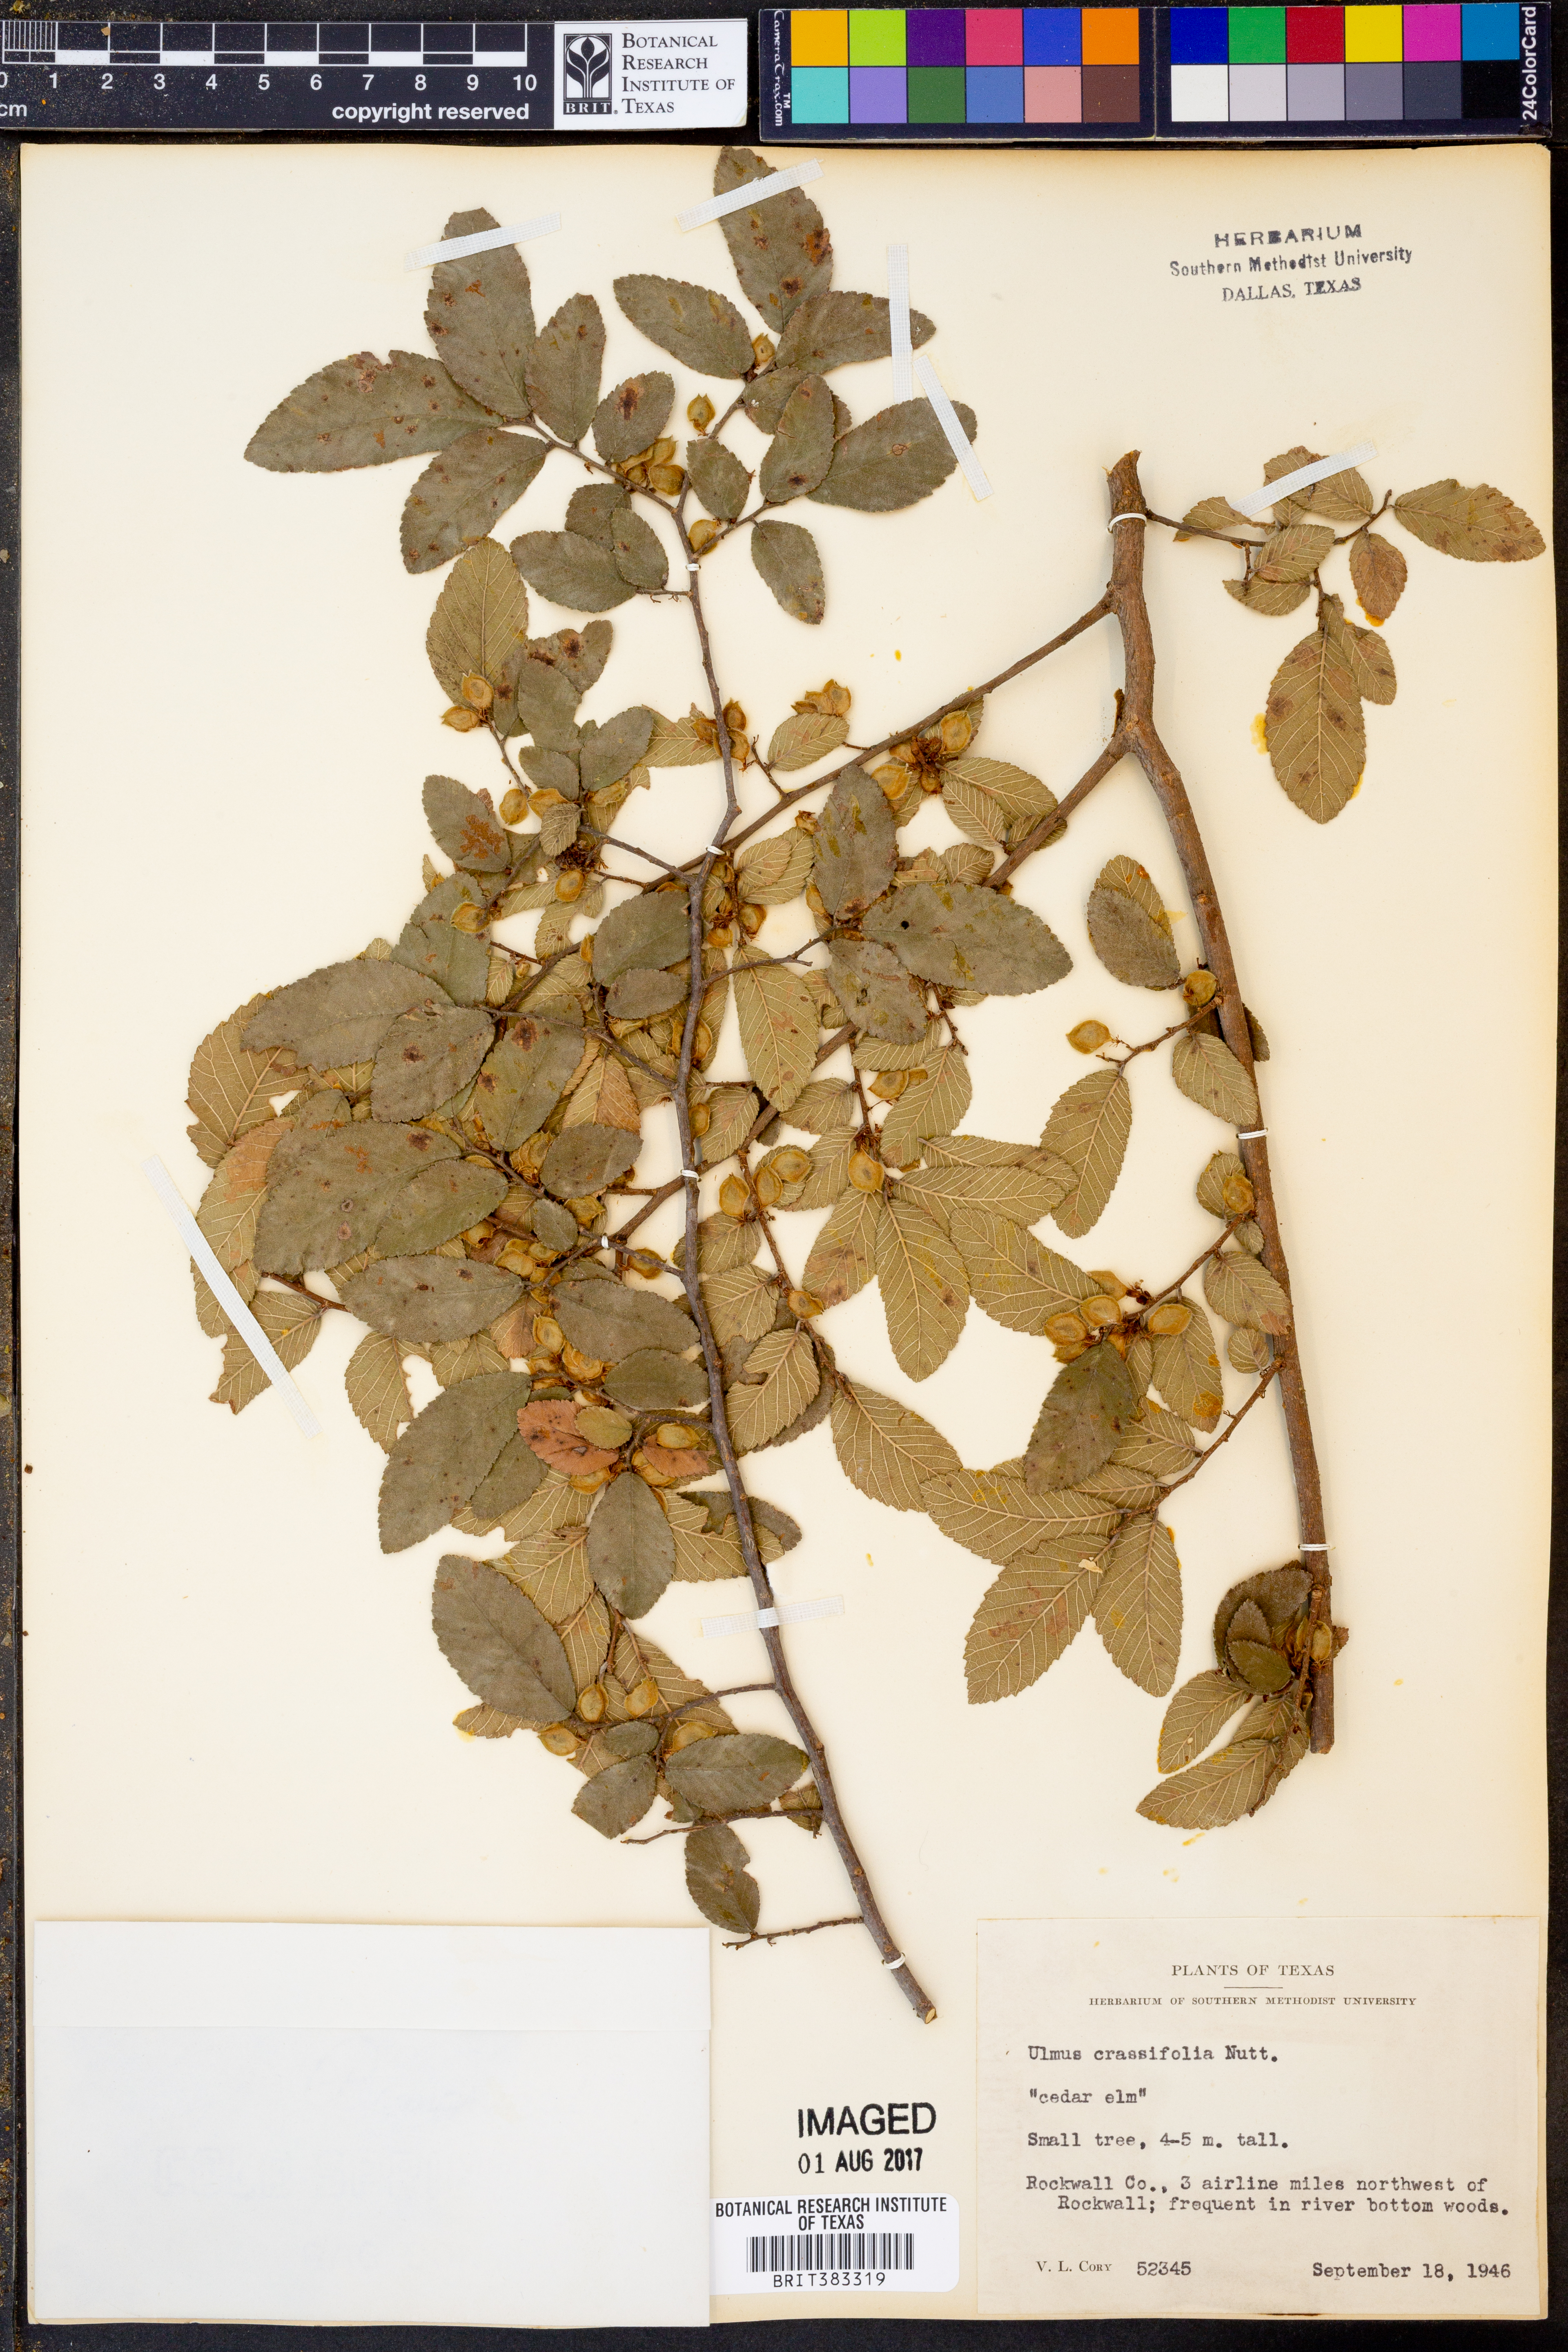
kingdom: Plantae
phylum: Tracheophyta
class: Magnoliopsida
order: Rosales
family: Ulmaceae
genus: Ulmus
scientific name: Ulmus crassifolia
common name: Basket elm
